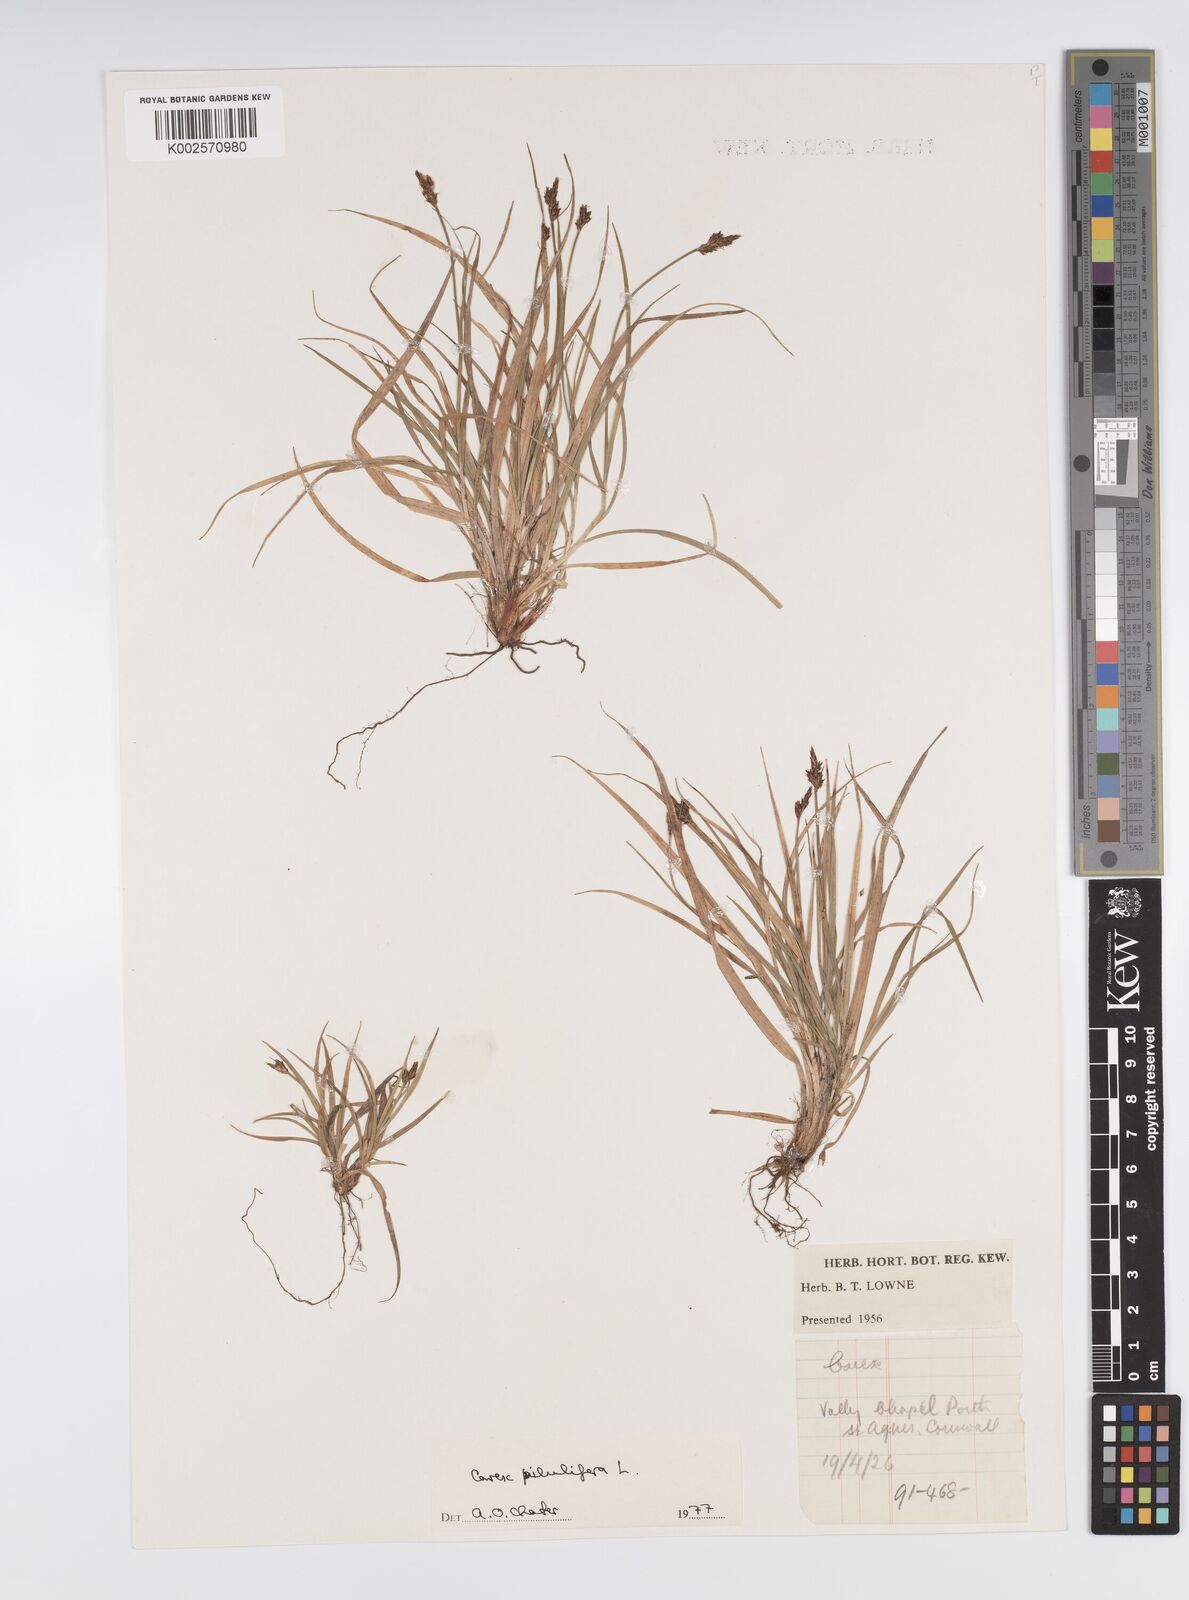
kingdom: Plantae
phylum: Tracheophyta
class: Liliopsida
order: Poales
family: Cyperaceae
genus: Carex
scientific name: Carex pilulifera
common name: Pill sedge
